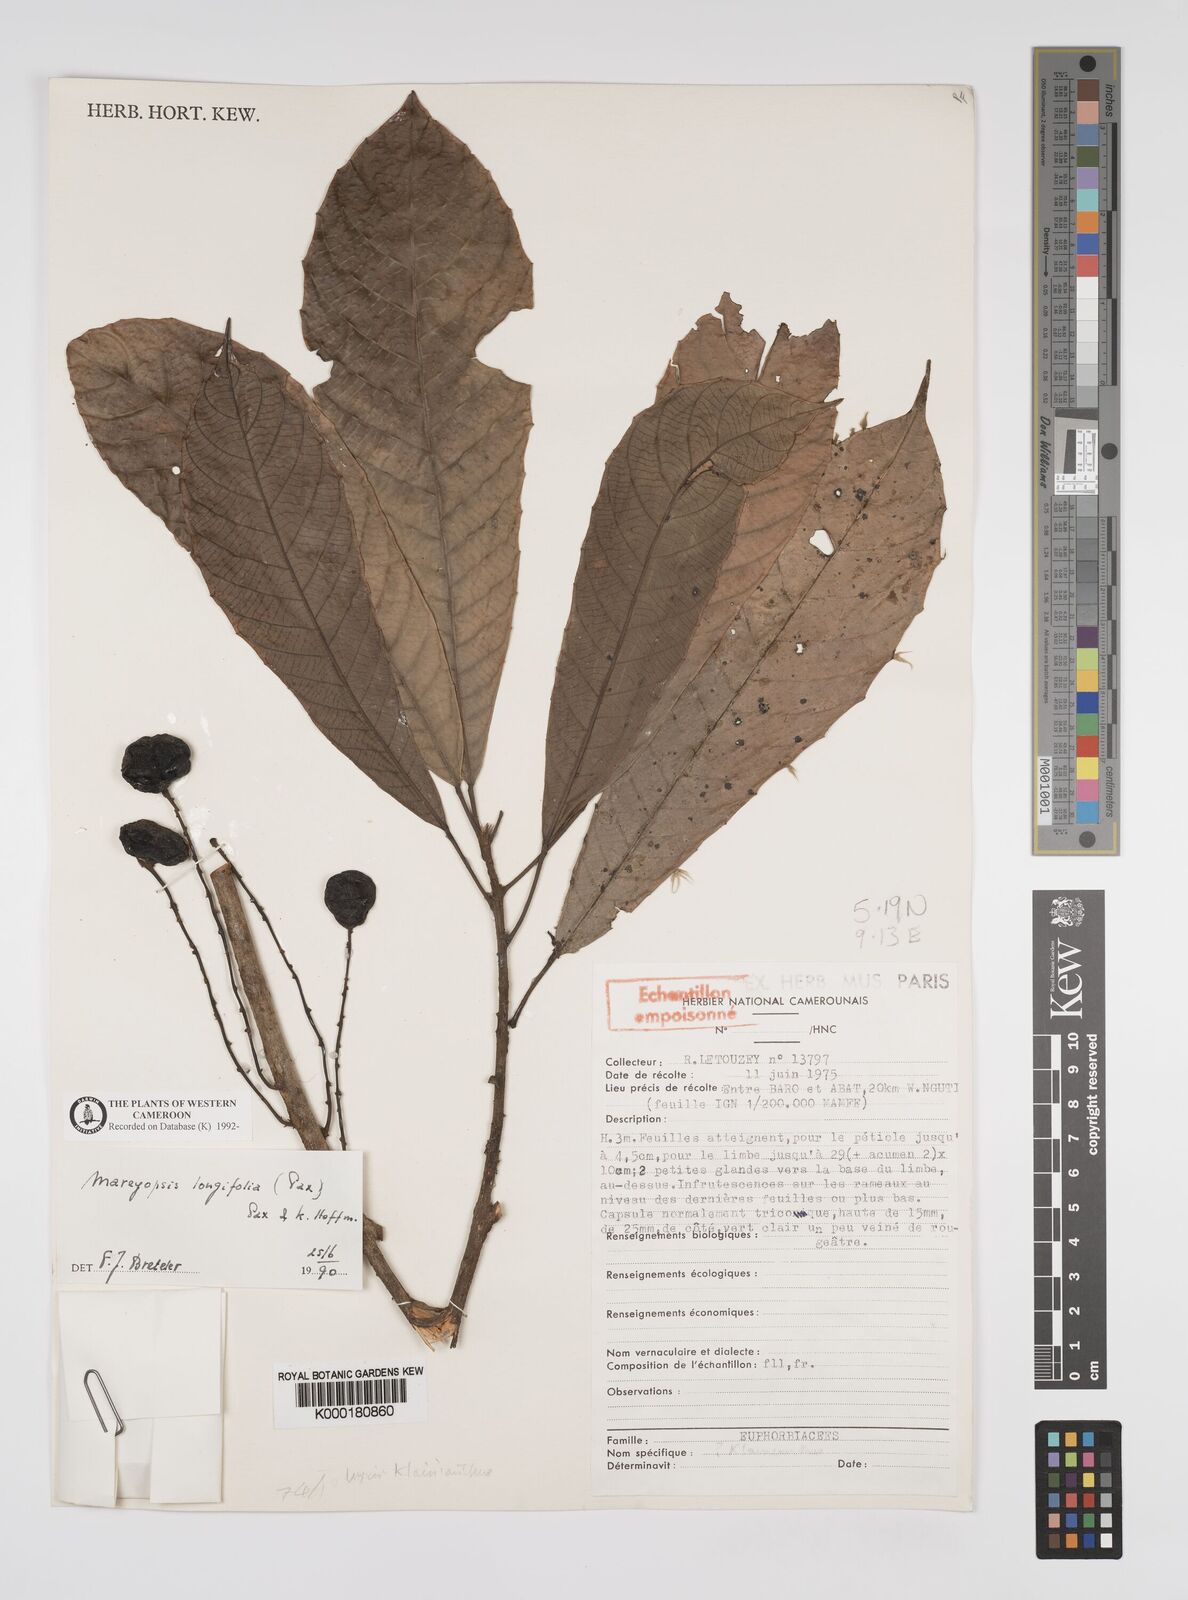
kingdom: Plantae
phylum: Tracheophyta
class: Magnoliopsida
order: Malpighiales
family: Euphorbiaceae
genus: Mareyopsis
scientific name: Mareyopsis longifolia
